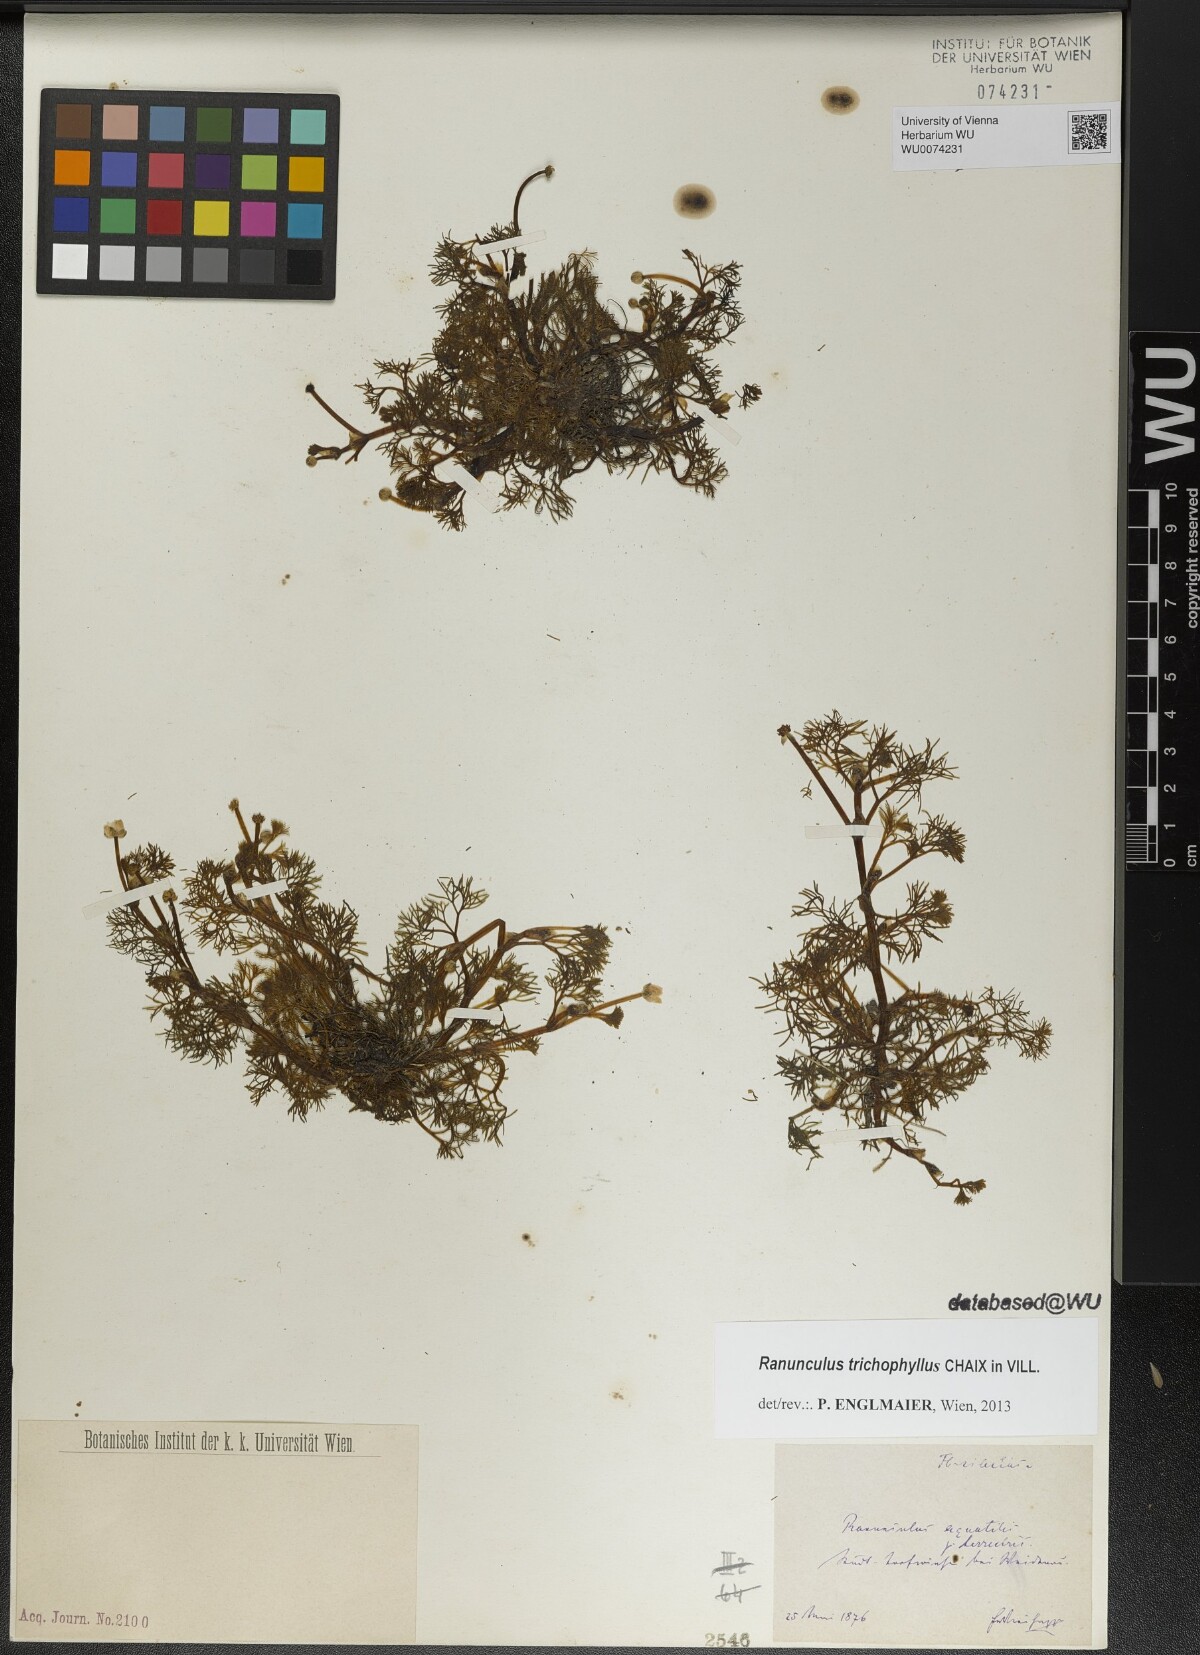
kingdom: Plantae
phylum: Tracheophyta
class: Magnoliopsida
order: Ranunculales
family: Ranunculaceae
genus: Ranunculus
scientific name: Ranunculus trichophyllus
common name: Thread-leaved water-crowfoot
